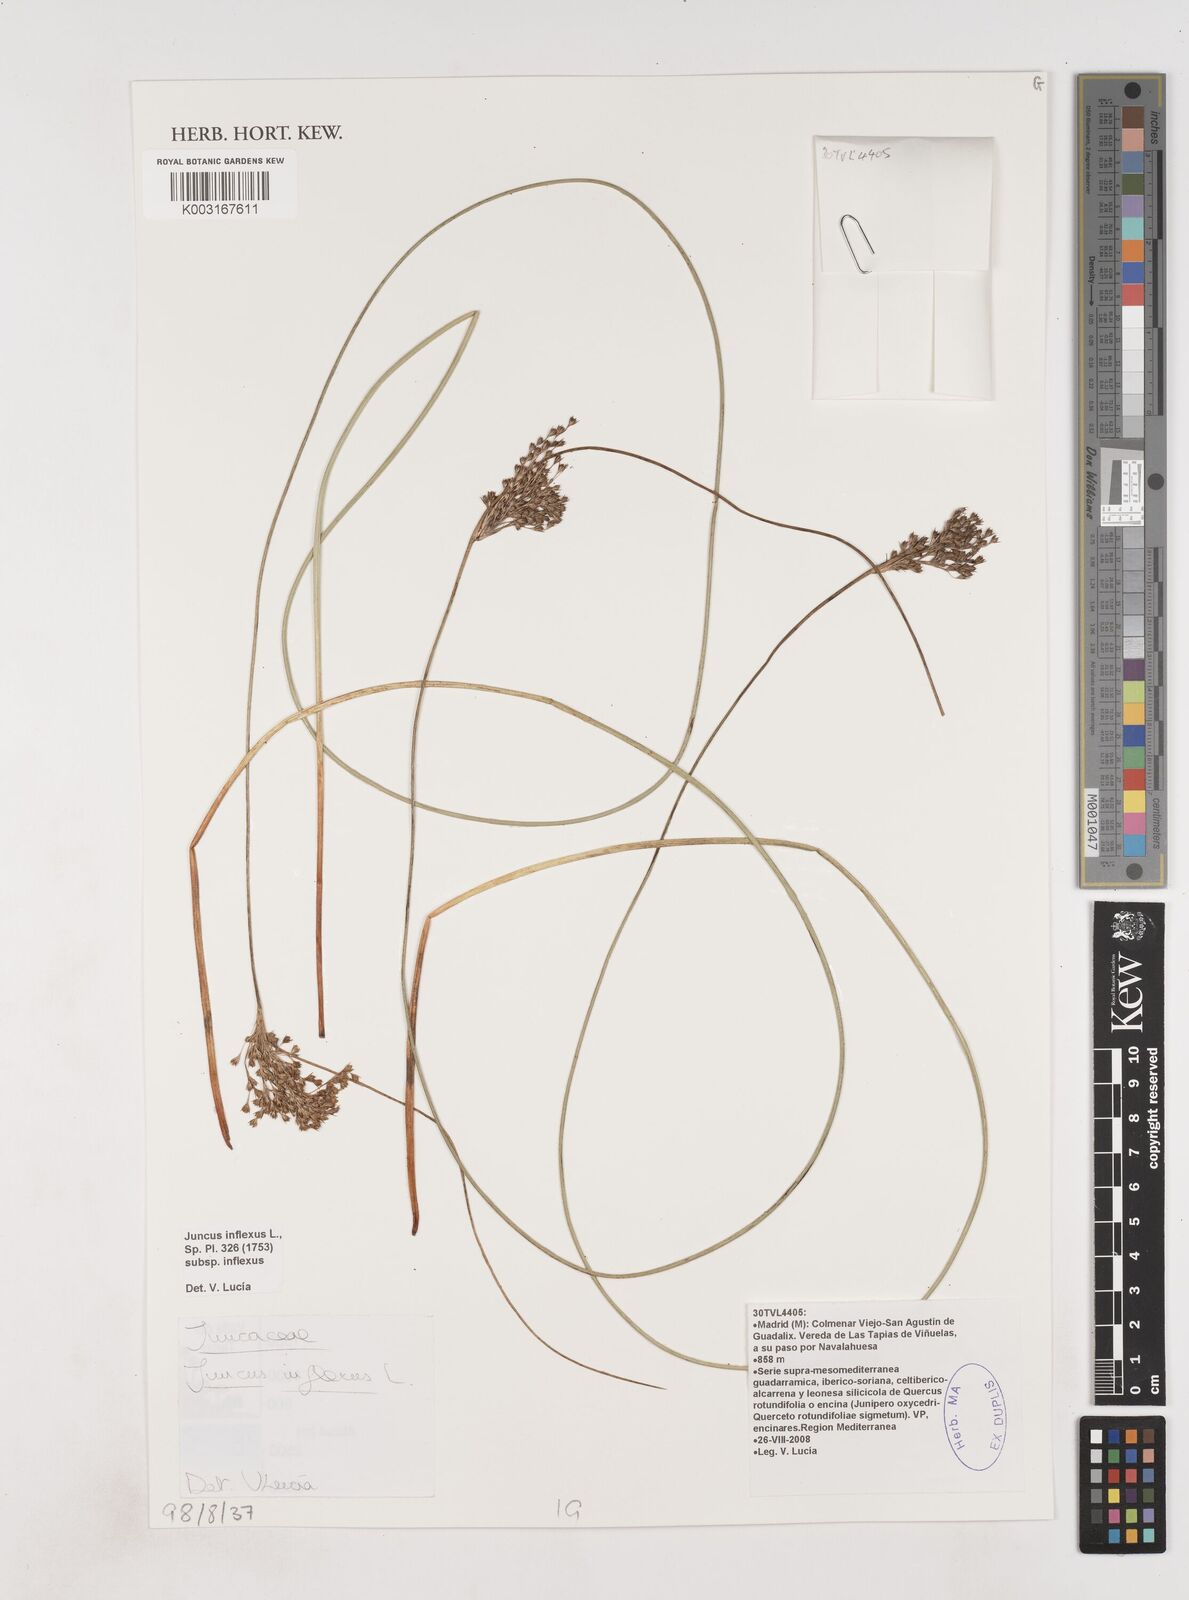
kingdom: Plantae
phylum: Tracheophyta
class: Liliopsida
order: Poales
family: Juncaceae
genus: Juncus
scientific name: Juncus inflexus
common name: Hard rush
